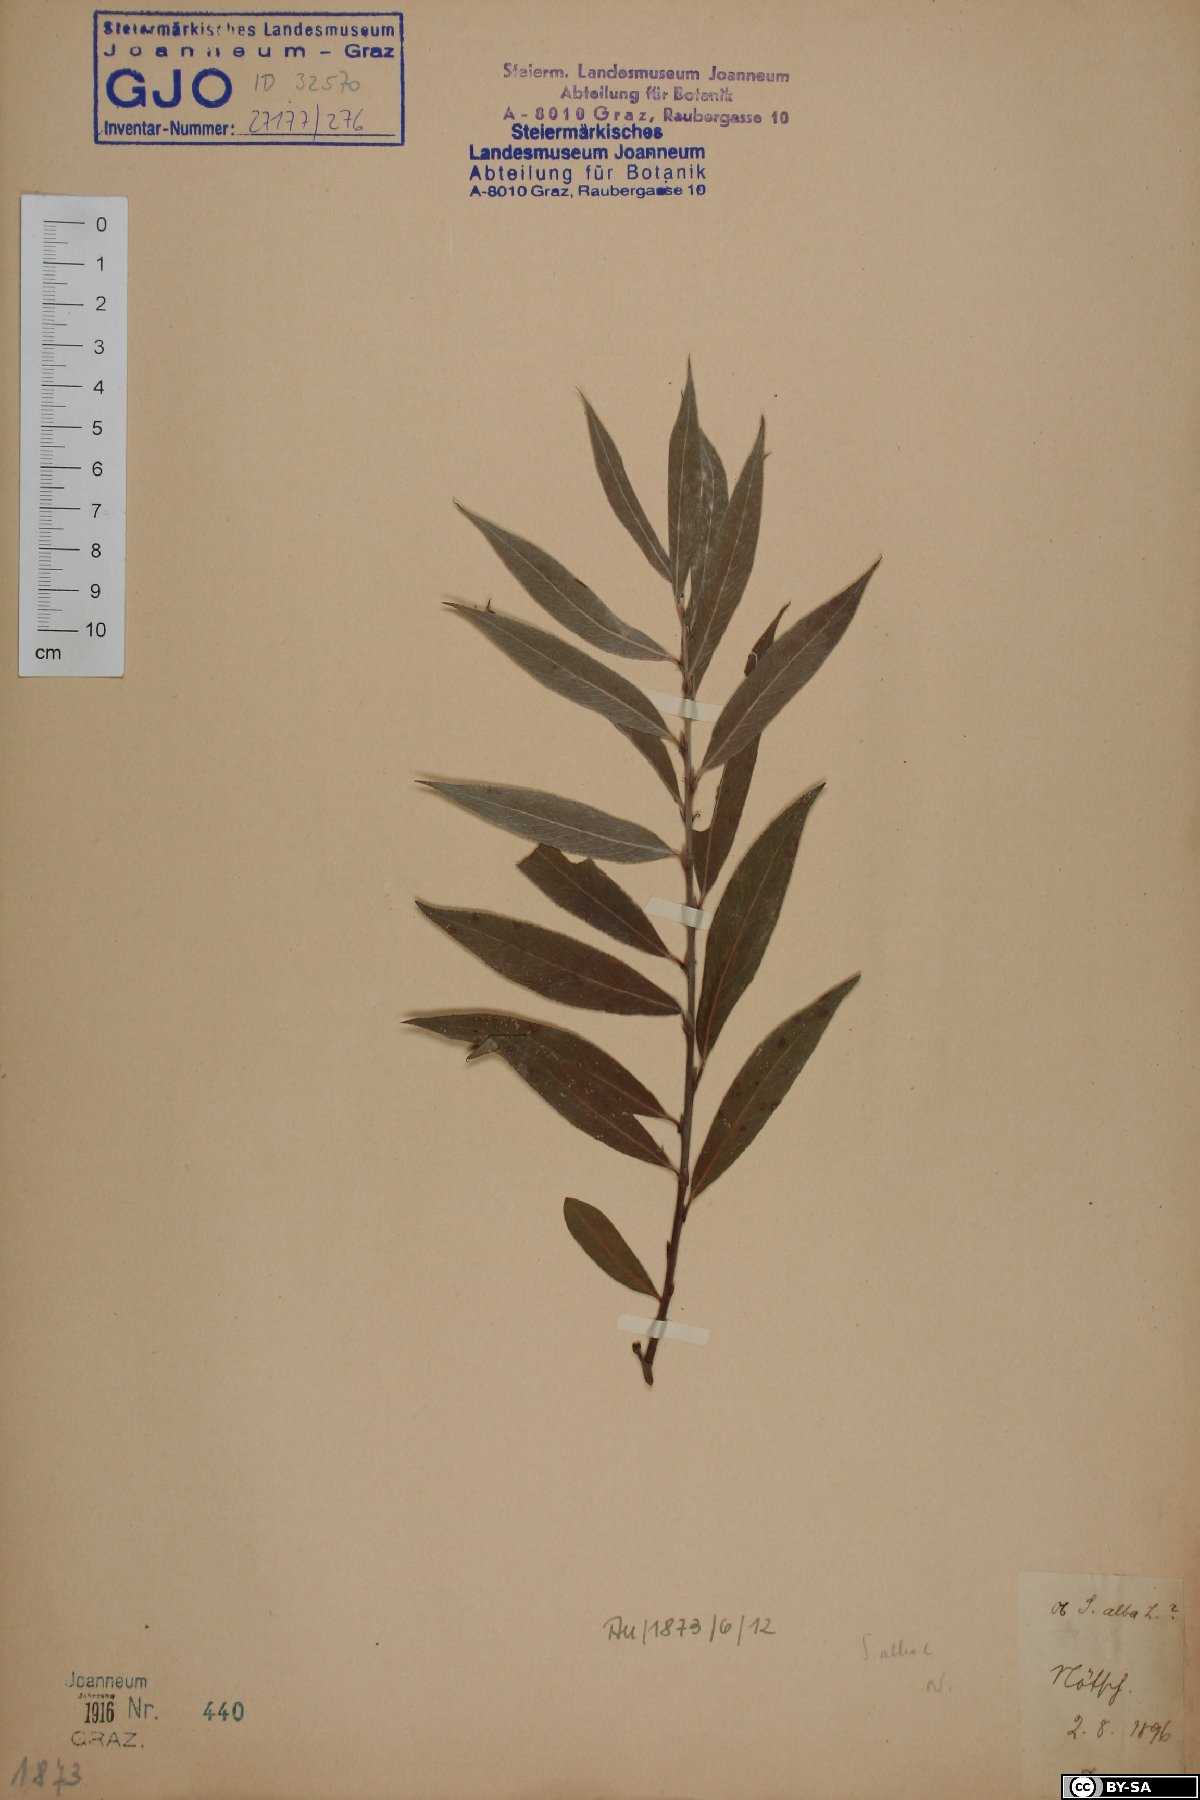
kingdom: Plantae
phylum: Tracheophyta
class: Magnoliopsida
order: Malpighiales
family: Salicaceae
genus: Salix
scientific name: Salix alba
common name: White willow
